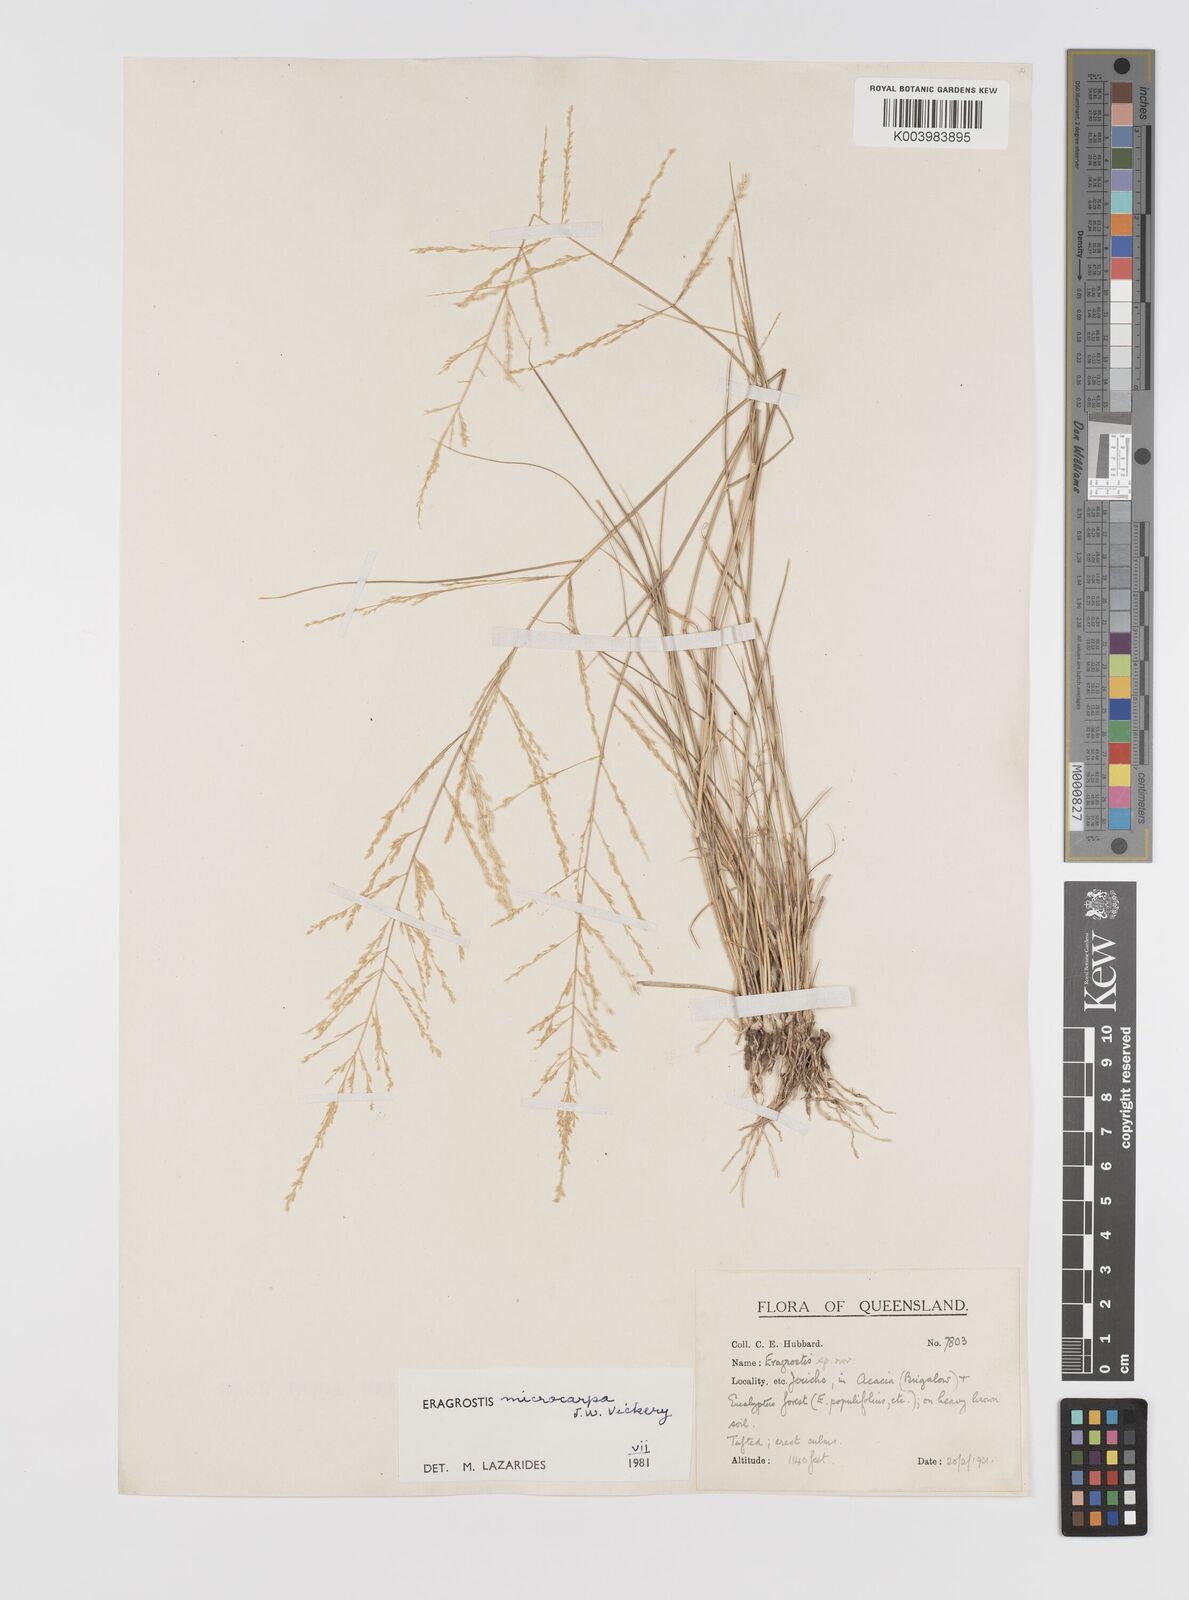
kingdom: Plantae
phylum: Tracheophyta
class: Liliopsida
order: Poales
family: Poaceae
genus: Eragrostis
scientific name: Eragrostis microcarpa
